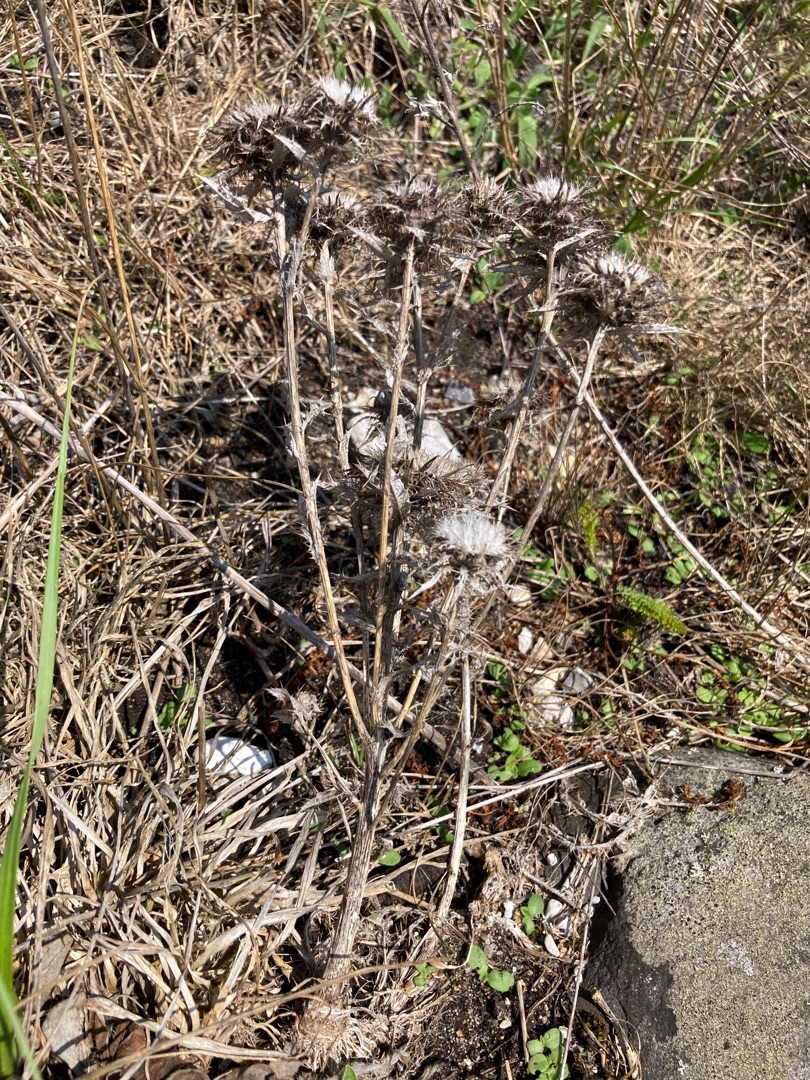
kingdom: Plantae
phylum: Tracheophyta
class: Magnoliopsida
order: Asterales
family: Asteraceae
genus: Carlina
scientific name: Carlina vulgaris
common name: Bakketidsel
